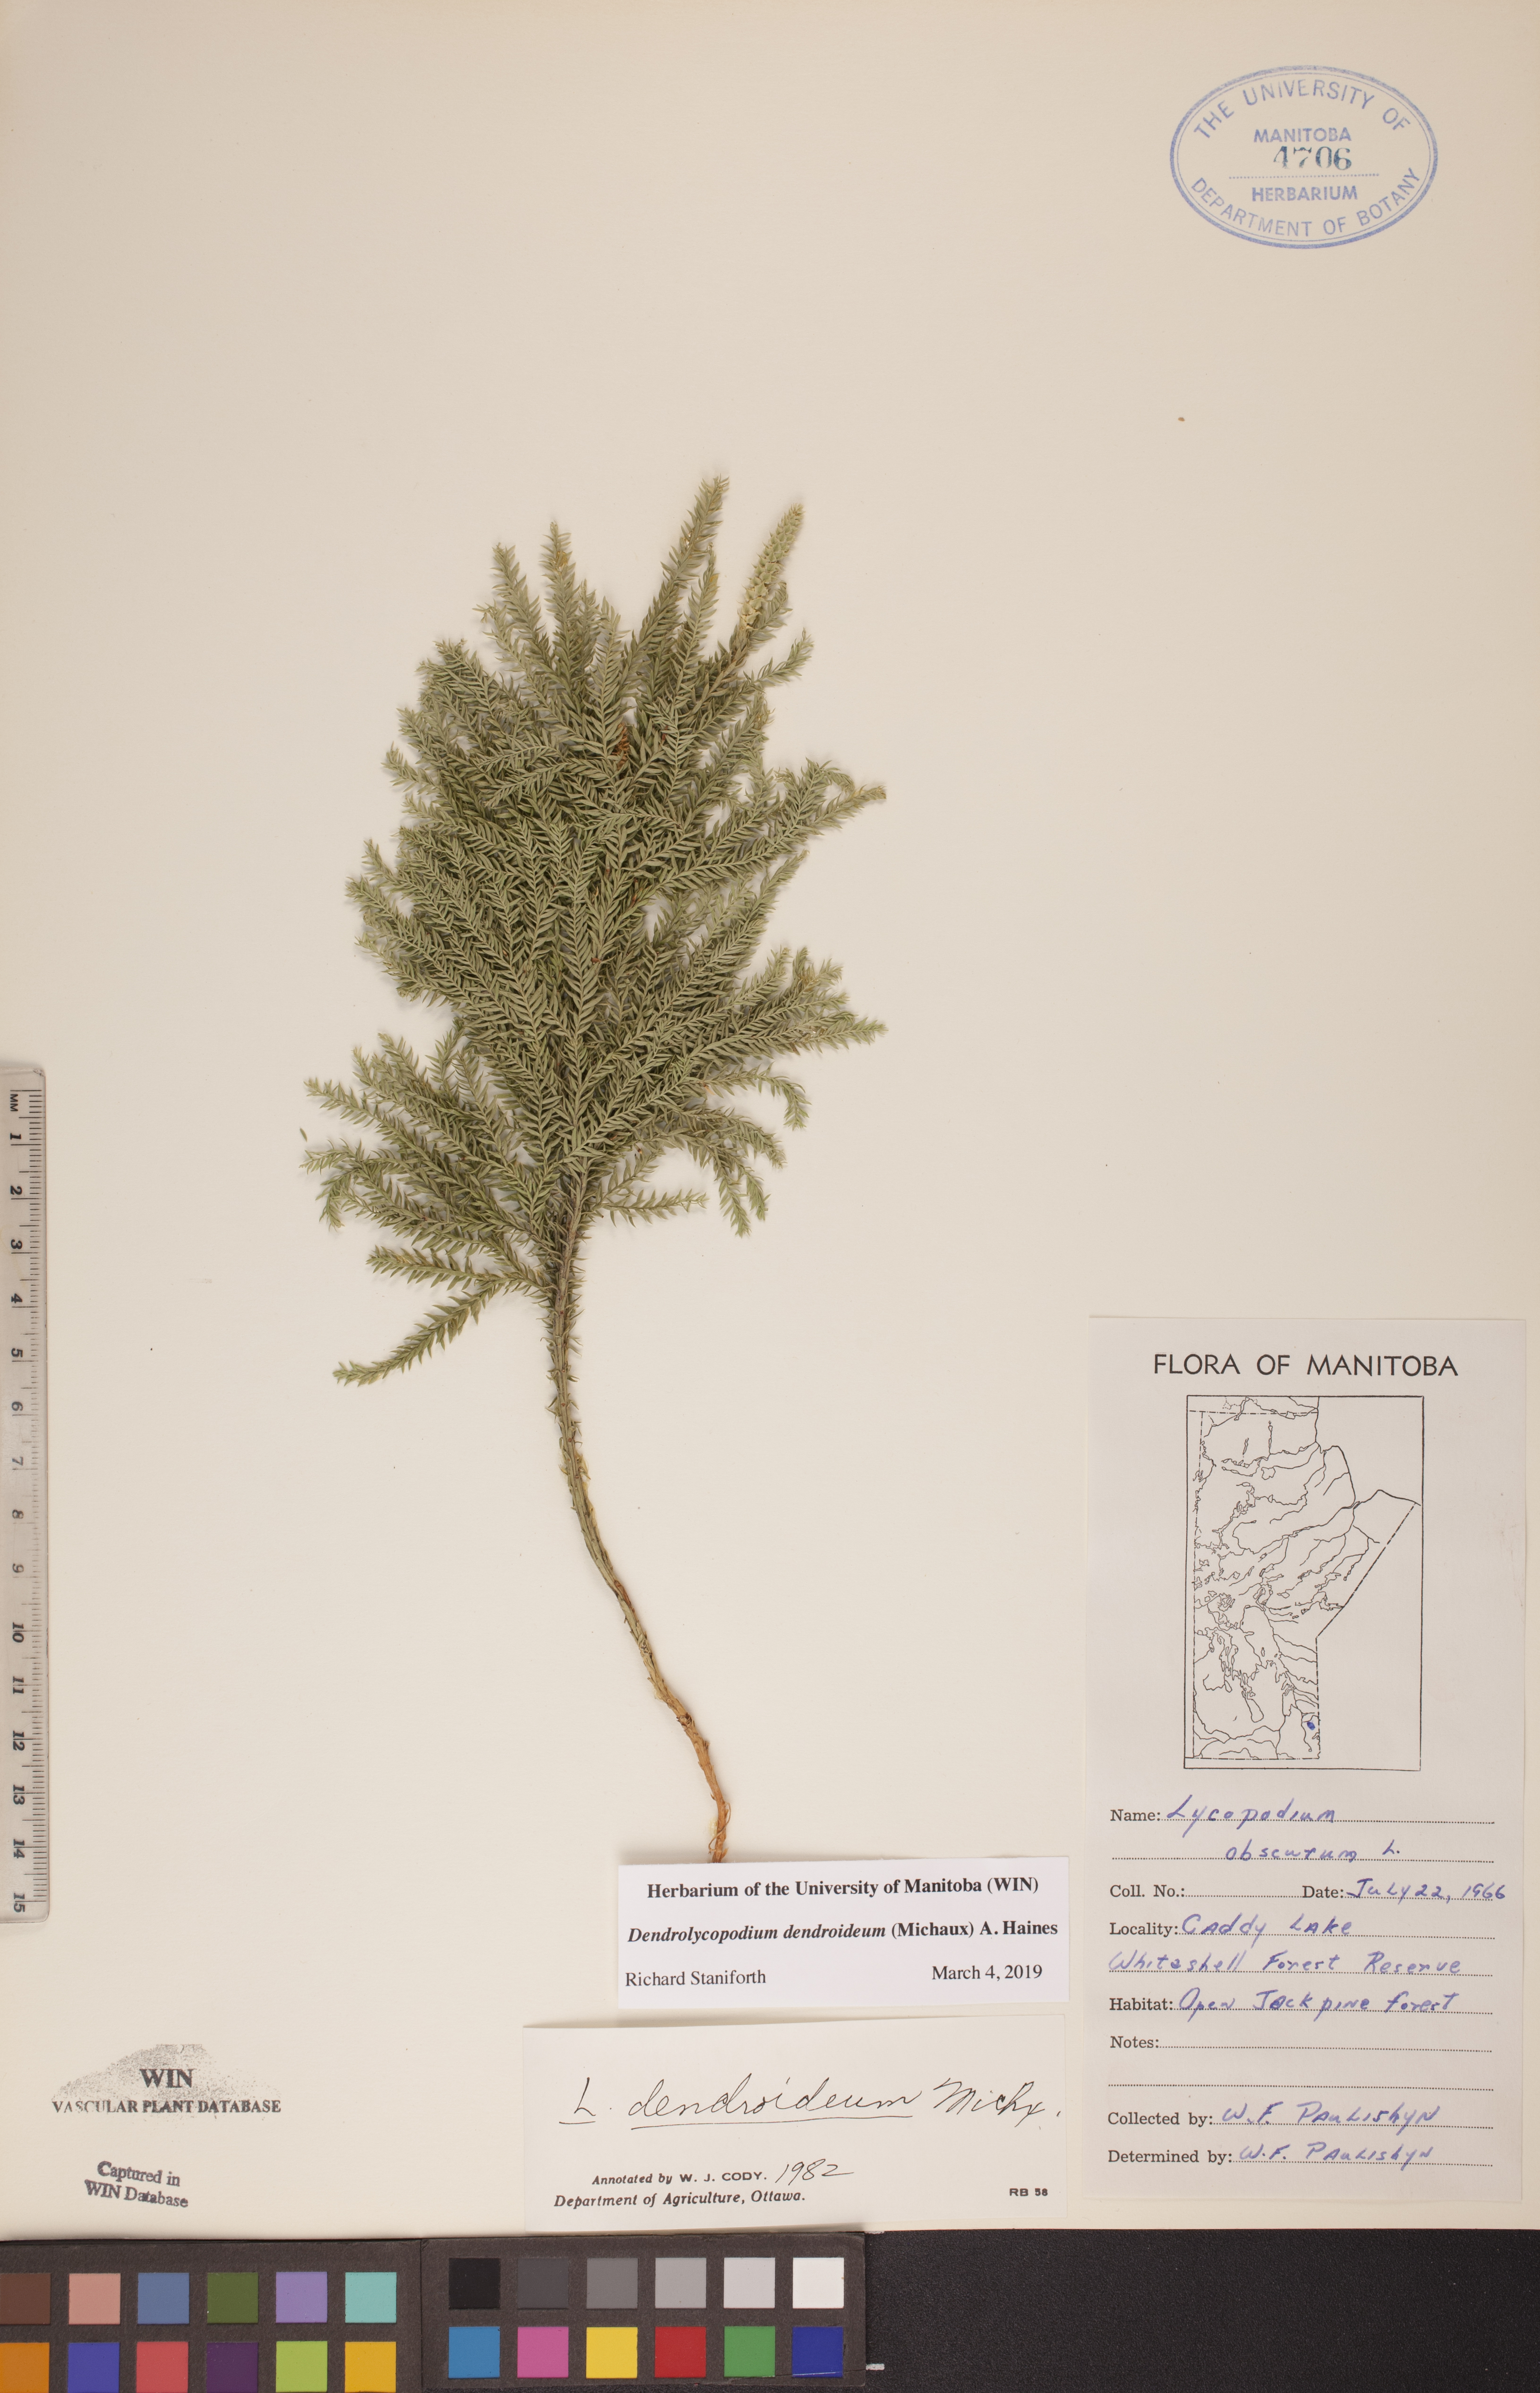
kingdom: Plantae
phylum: Tracheophyta
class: Lycopodiopsida
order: Lycopodiales
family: Lycopodiaceae
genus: Dendrolycopodium
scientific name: Dendrolycopodium dendroideum
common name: Northern tree-clubmoss
